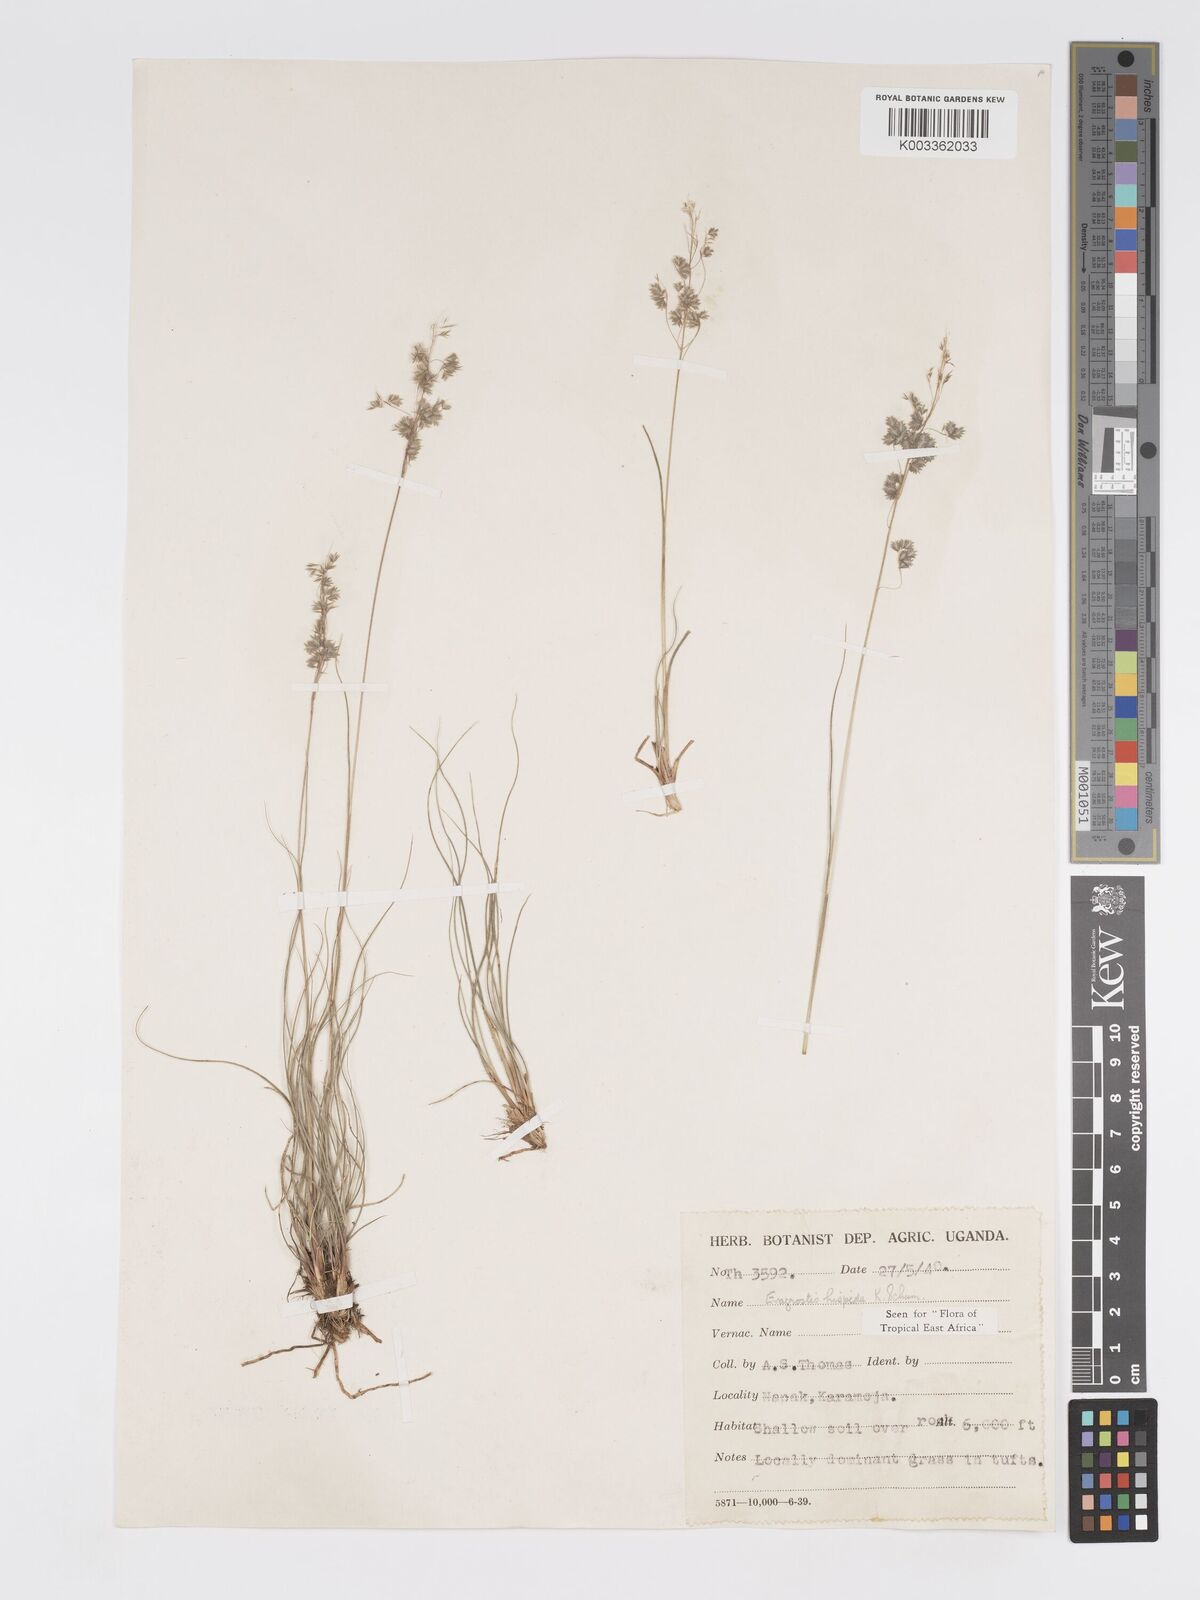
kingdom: Plantae
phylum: Tracheophyta
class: Liliopsida
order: Poales
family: Poaceae
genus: Eragrostis
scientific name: Eragrostis hispida
